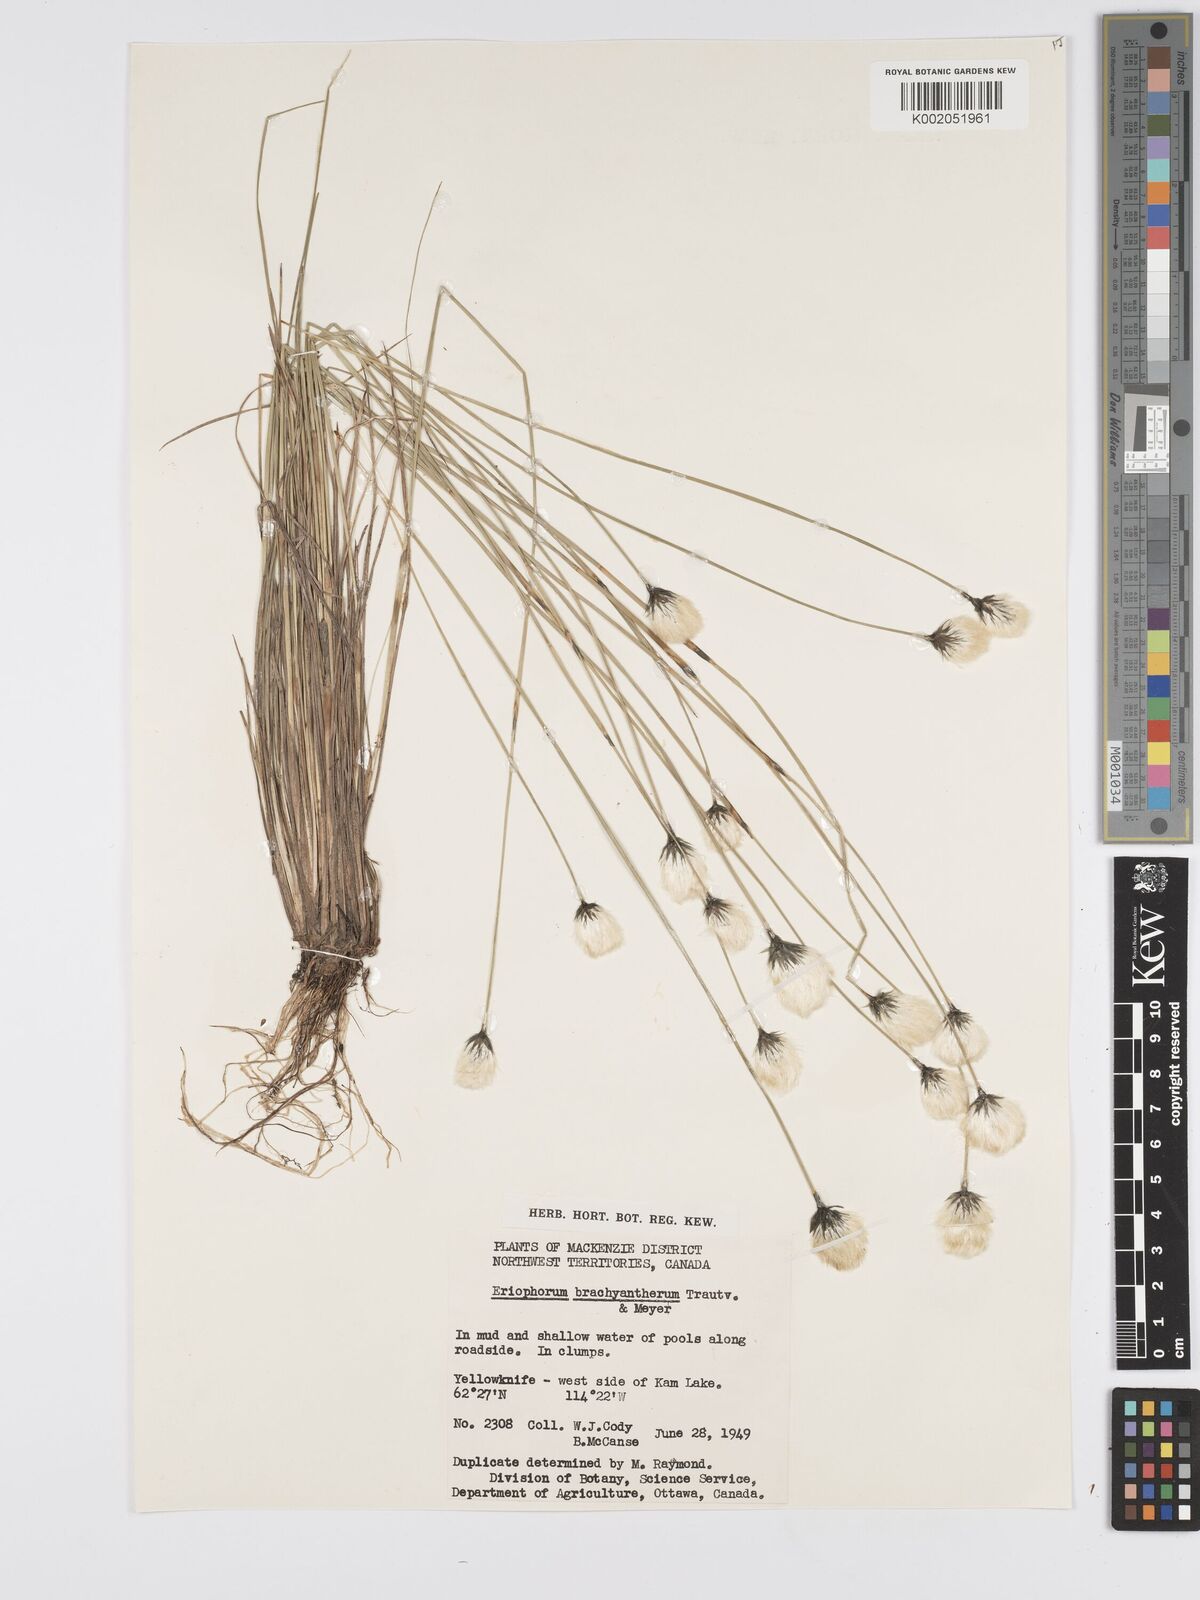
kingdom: Plantae
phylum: Tracheophyta
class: Liliopsida
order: Poales
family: Cyperaceae
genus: Eriophorum
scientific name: Eriophorum brachyantherum
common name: Closed-sheathed cottongrass
